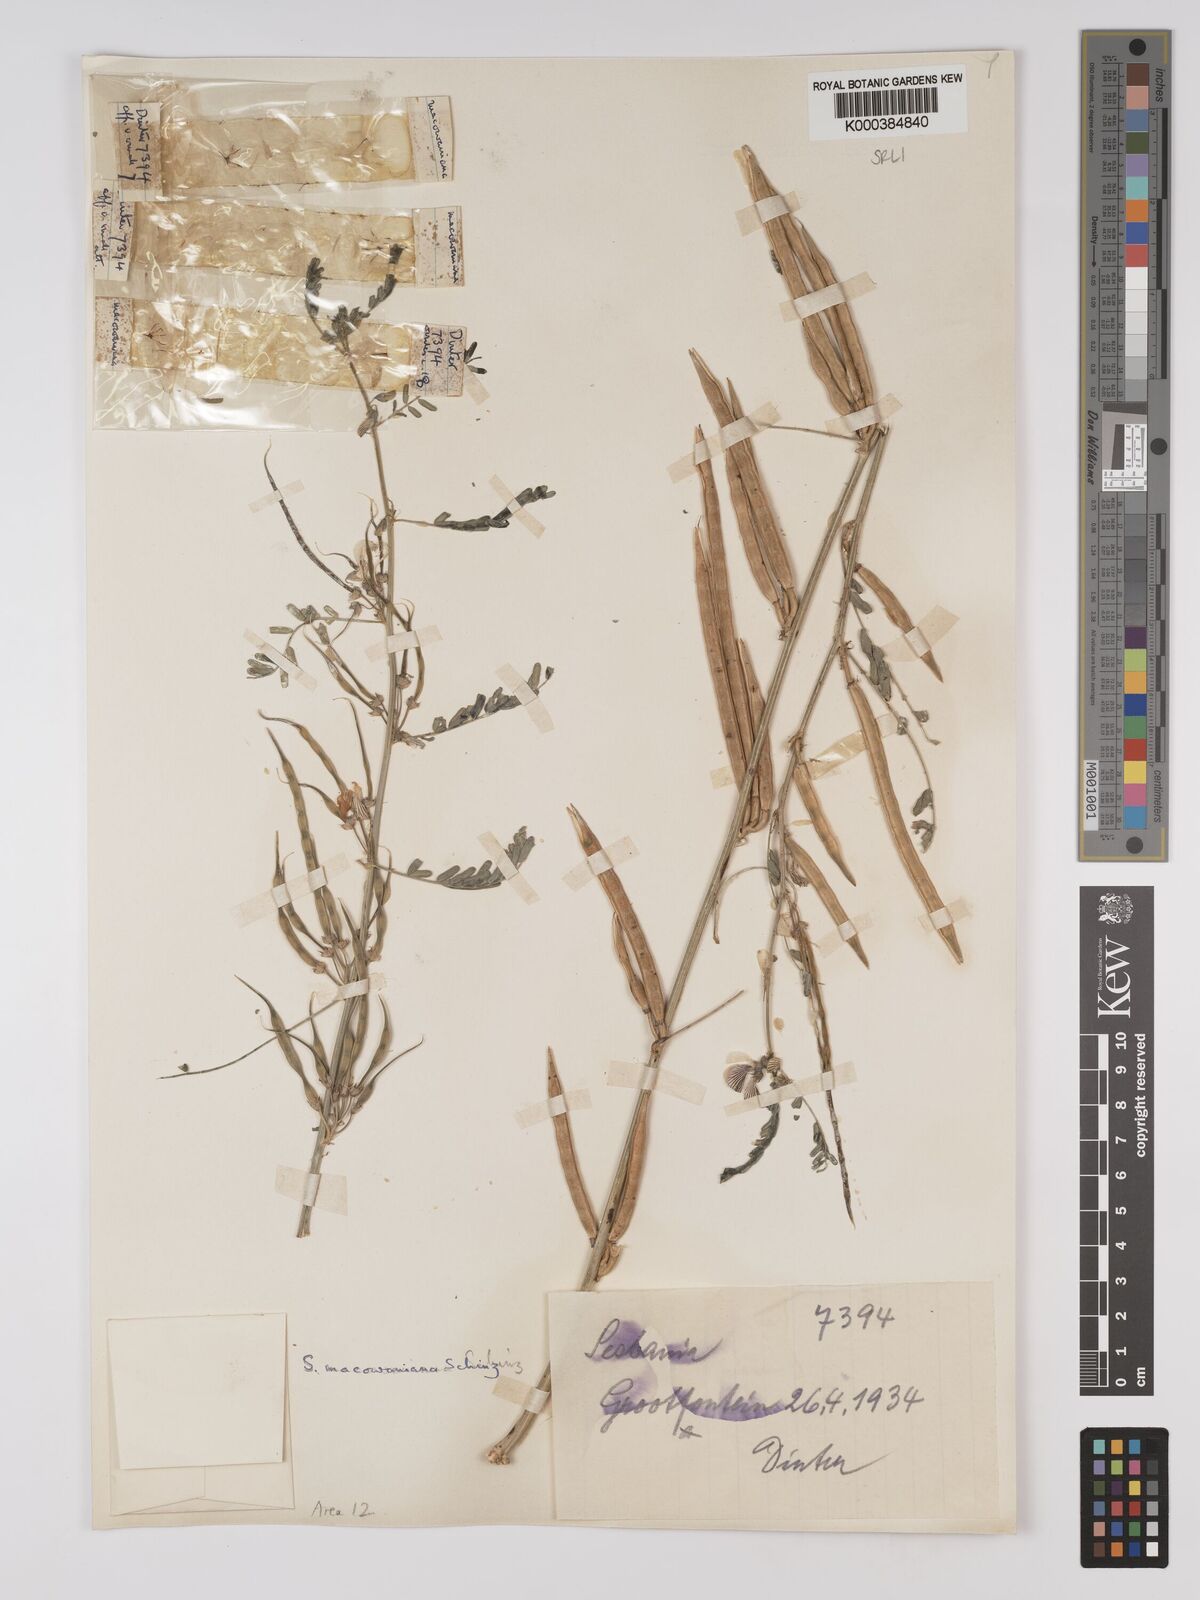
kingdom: Plantae
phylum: Tracheophyta
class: Magnoliopsida
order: Fabales
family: Fabaceae
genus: Sesbania
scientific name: Sesbania macowaniana
